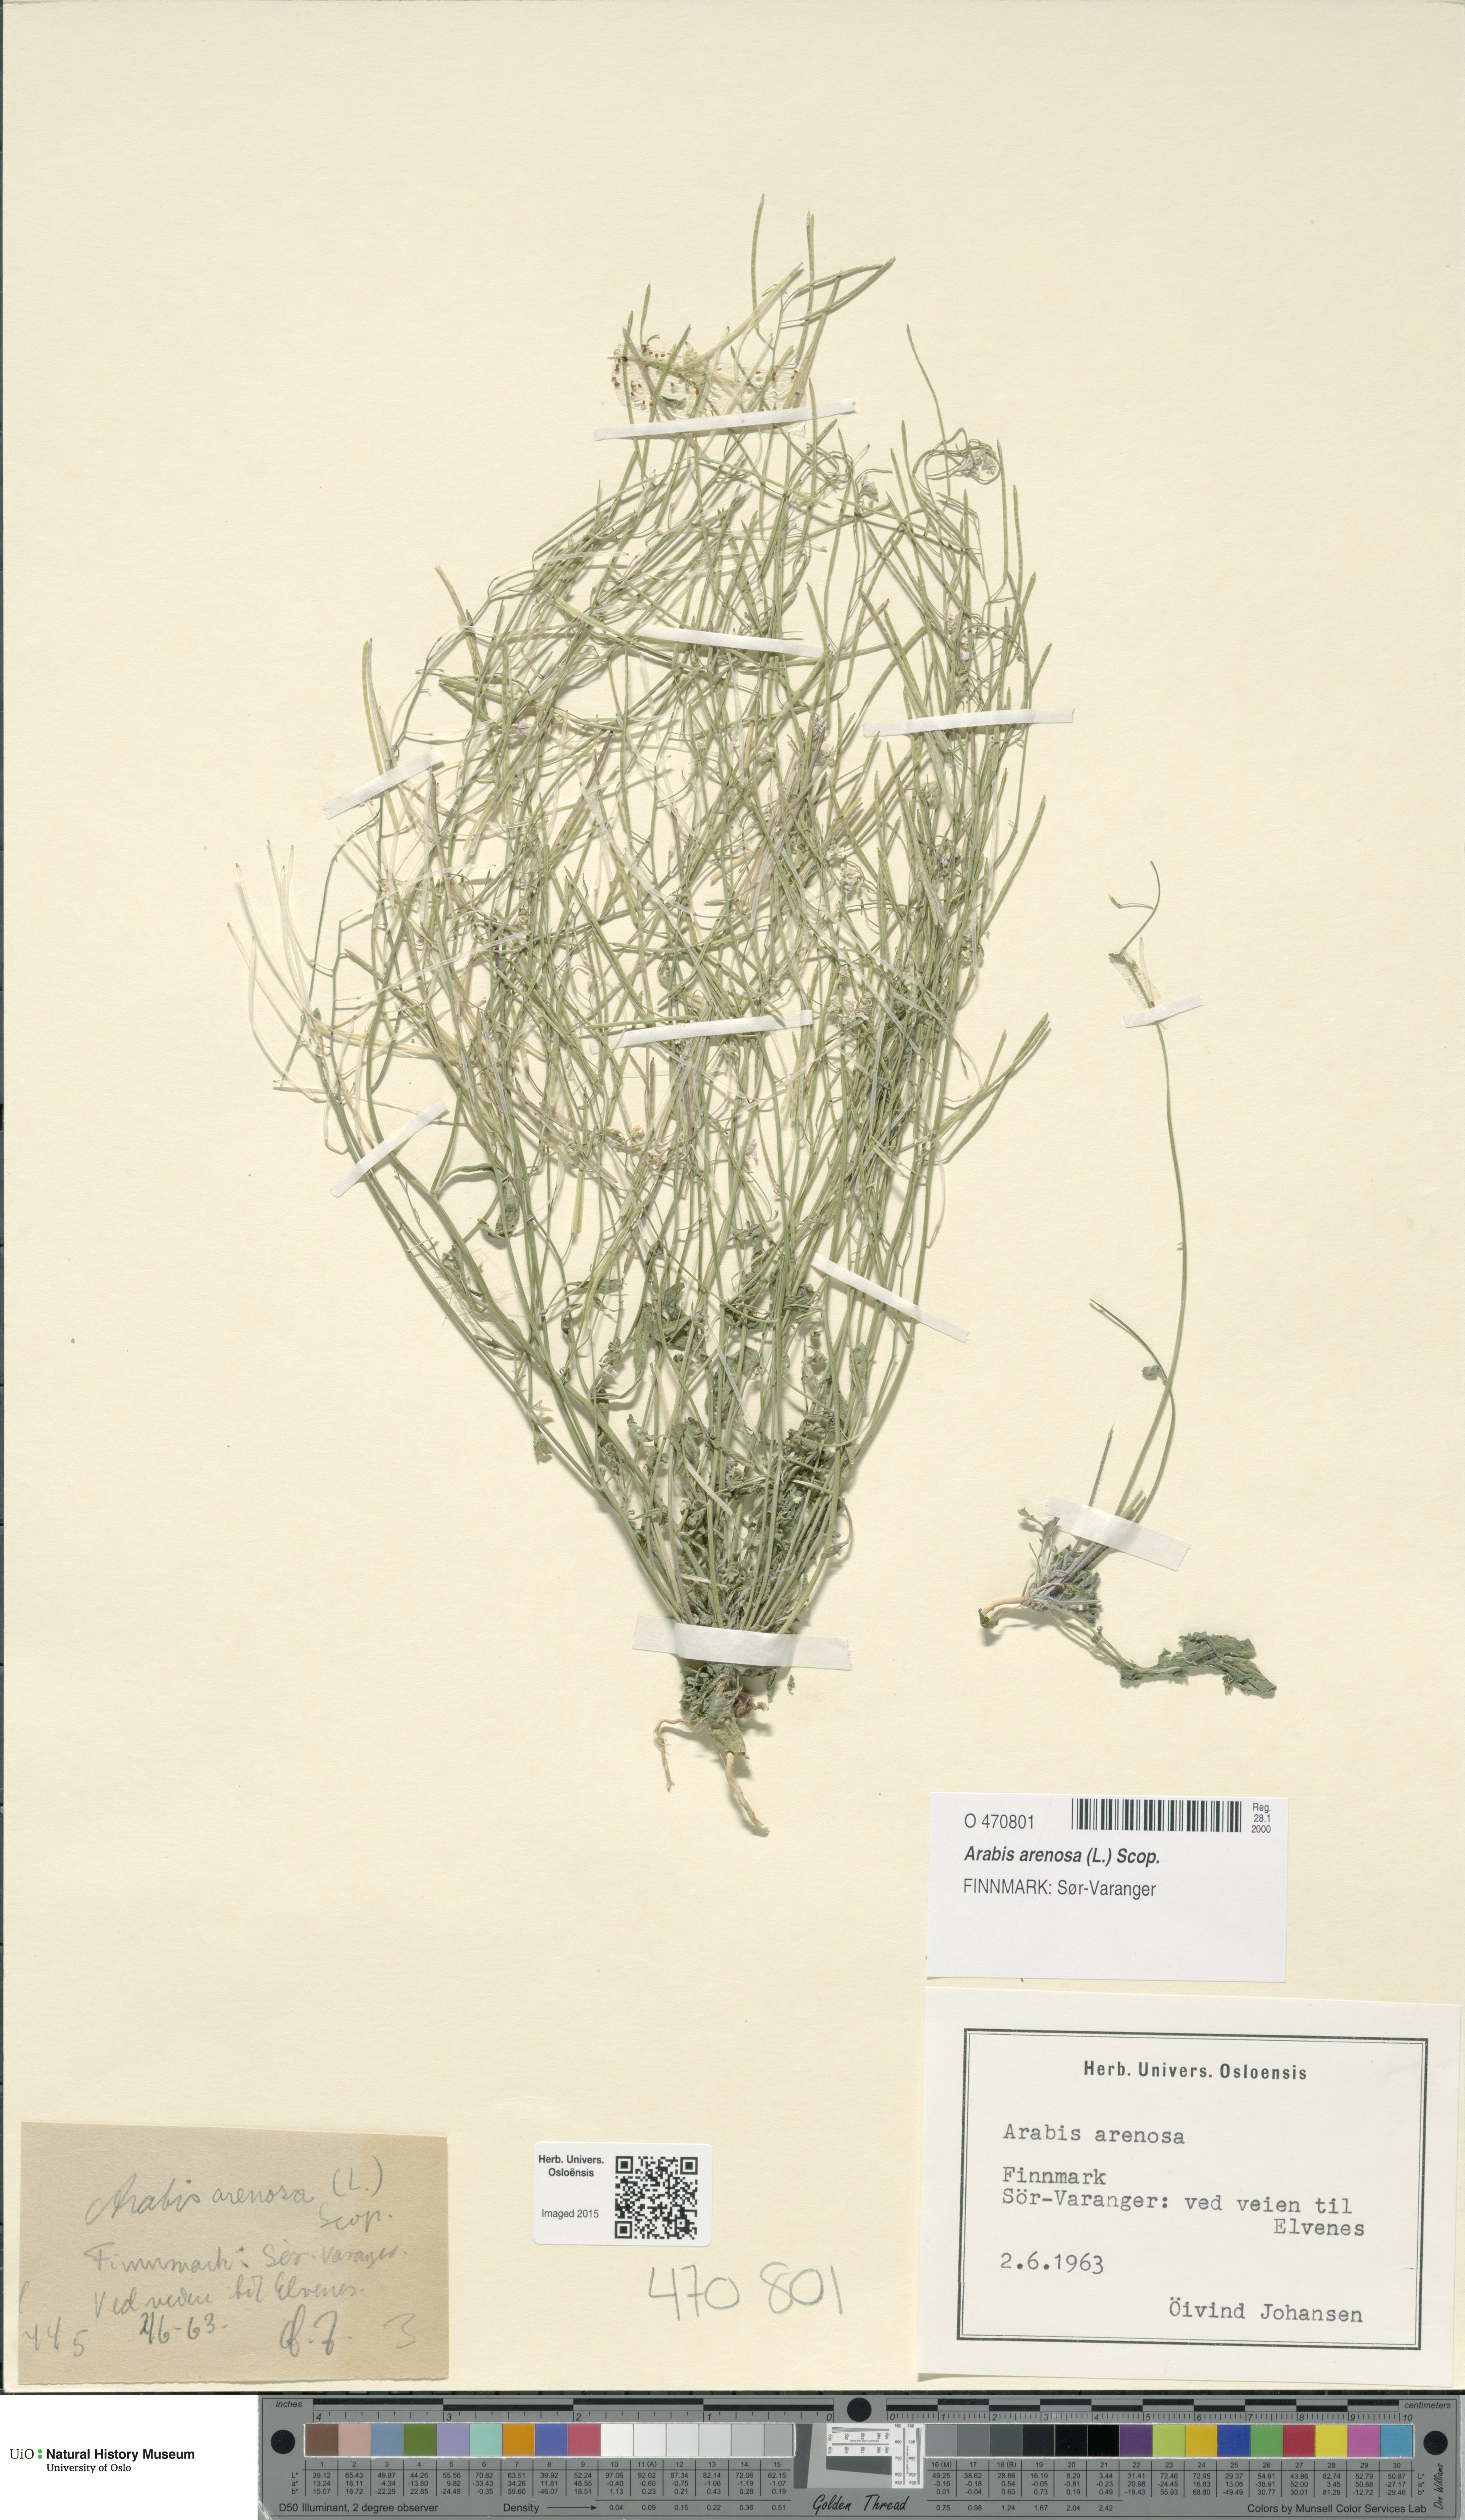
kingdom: Plantae
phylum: Tracheophyta
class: Magnoliopsida
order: Brassicales
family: Brassicaceae
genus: Arabidopsis
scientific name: Arabidopsis arenosa
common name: Sand rock-cress
